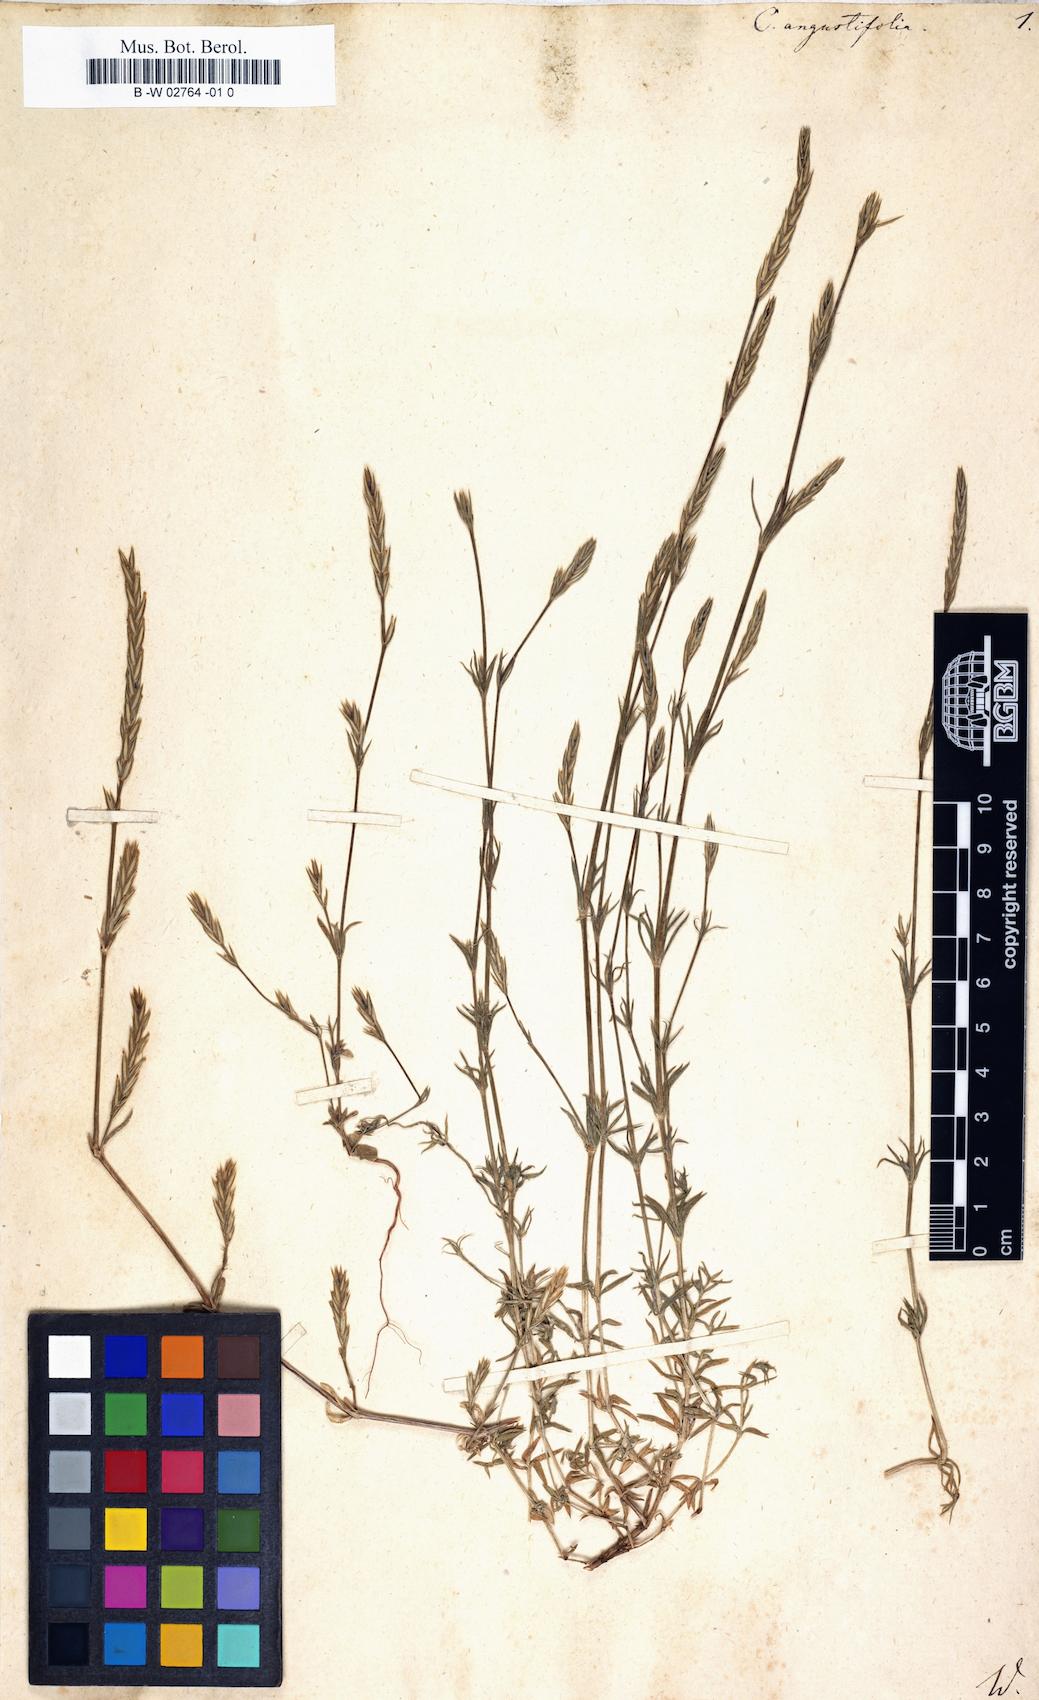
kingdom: Plantae
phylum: Tracheophyta
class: Magnoliopsida
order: Gentianales
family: Rubiaceae
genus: Crucianella
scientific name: Crucianella angustifolia
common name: Narrowleaf crucianella
